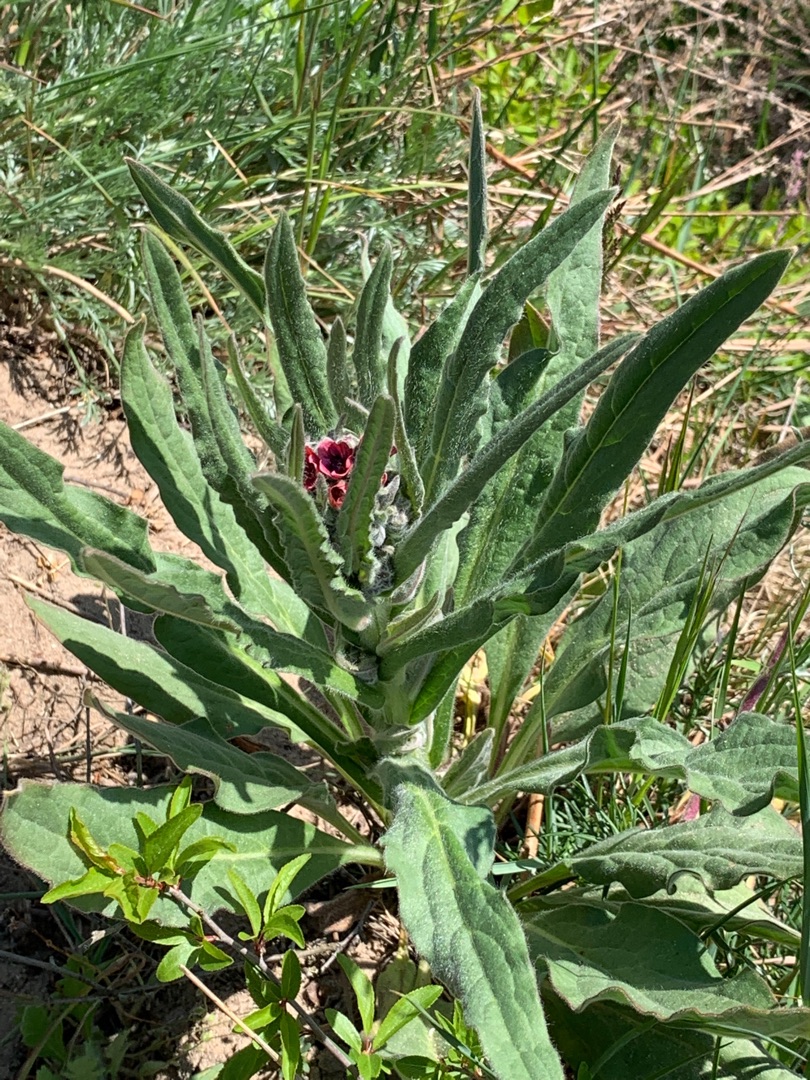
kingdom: Plantae
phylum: Tracheophyta
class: Magnoliopsida
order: Boraginales
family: Boraginaceae
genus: Cynoglossum
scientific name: Cynoglossum officinale
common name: Hundetunge
